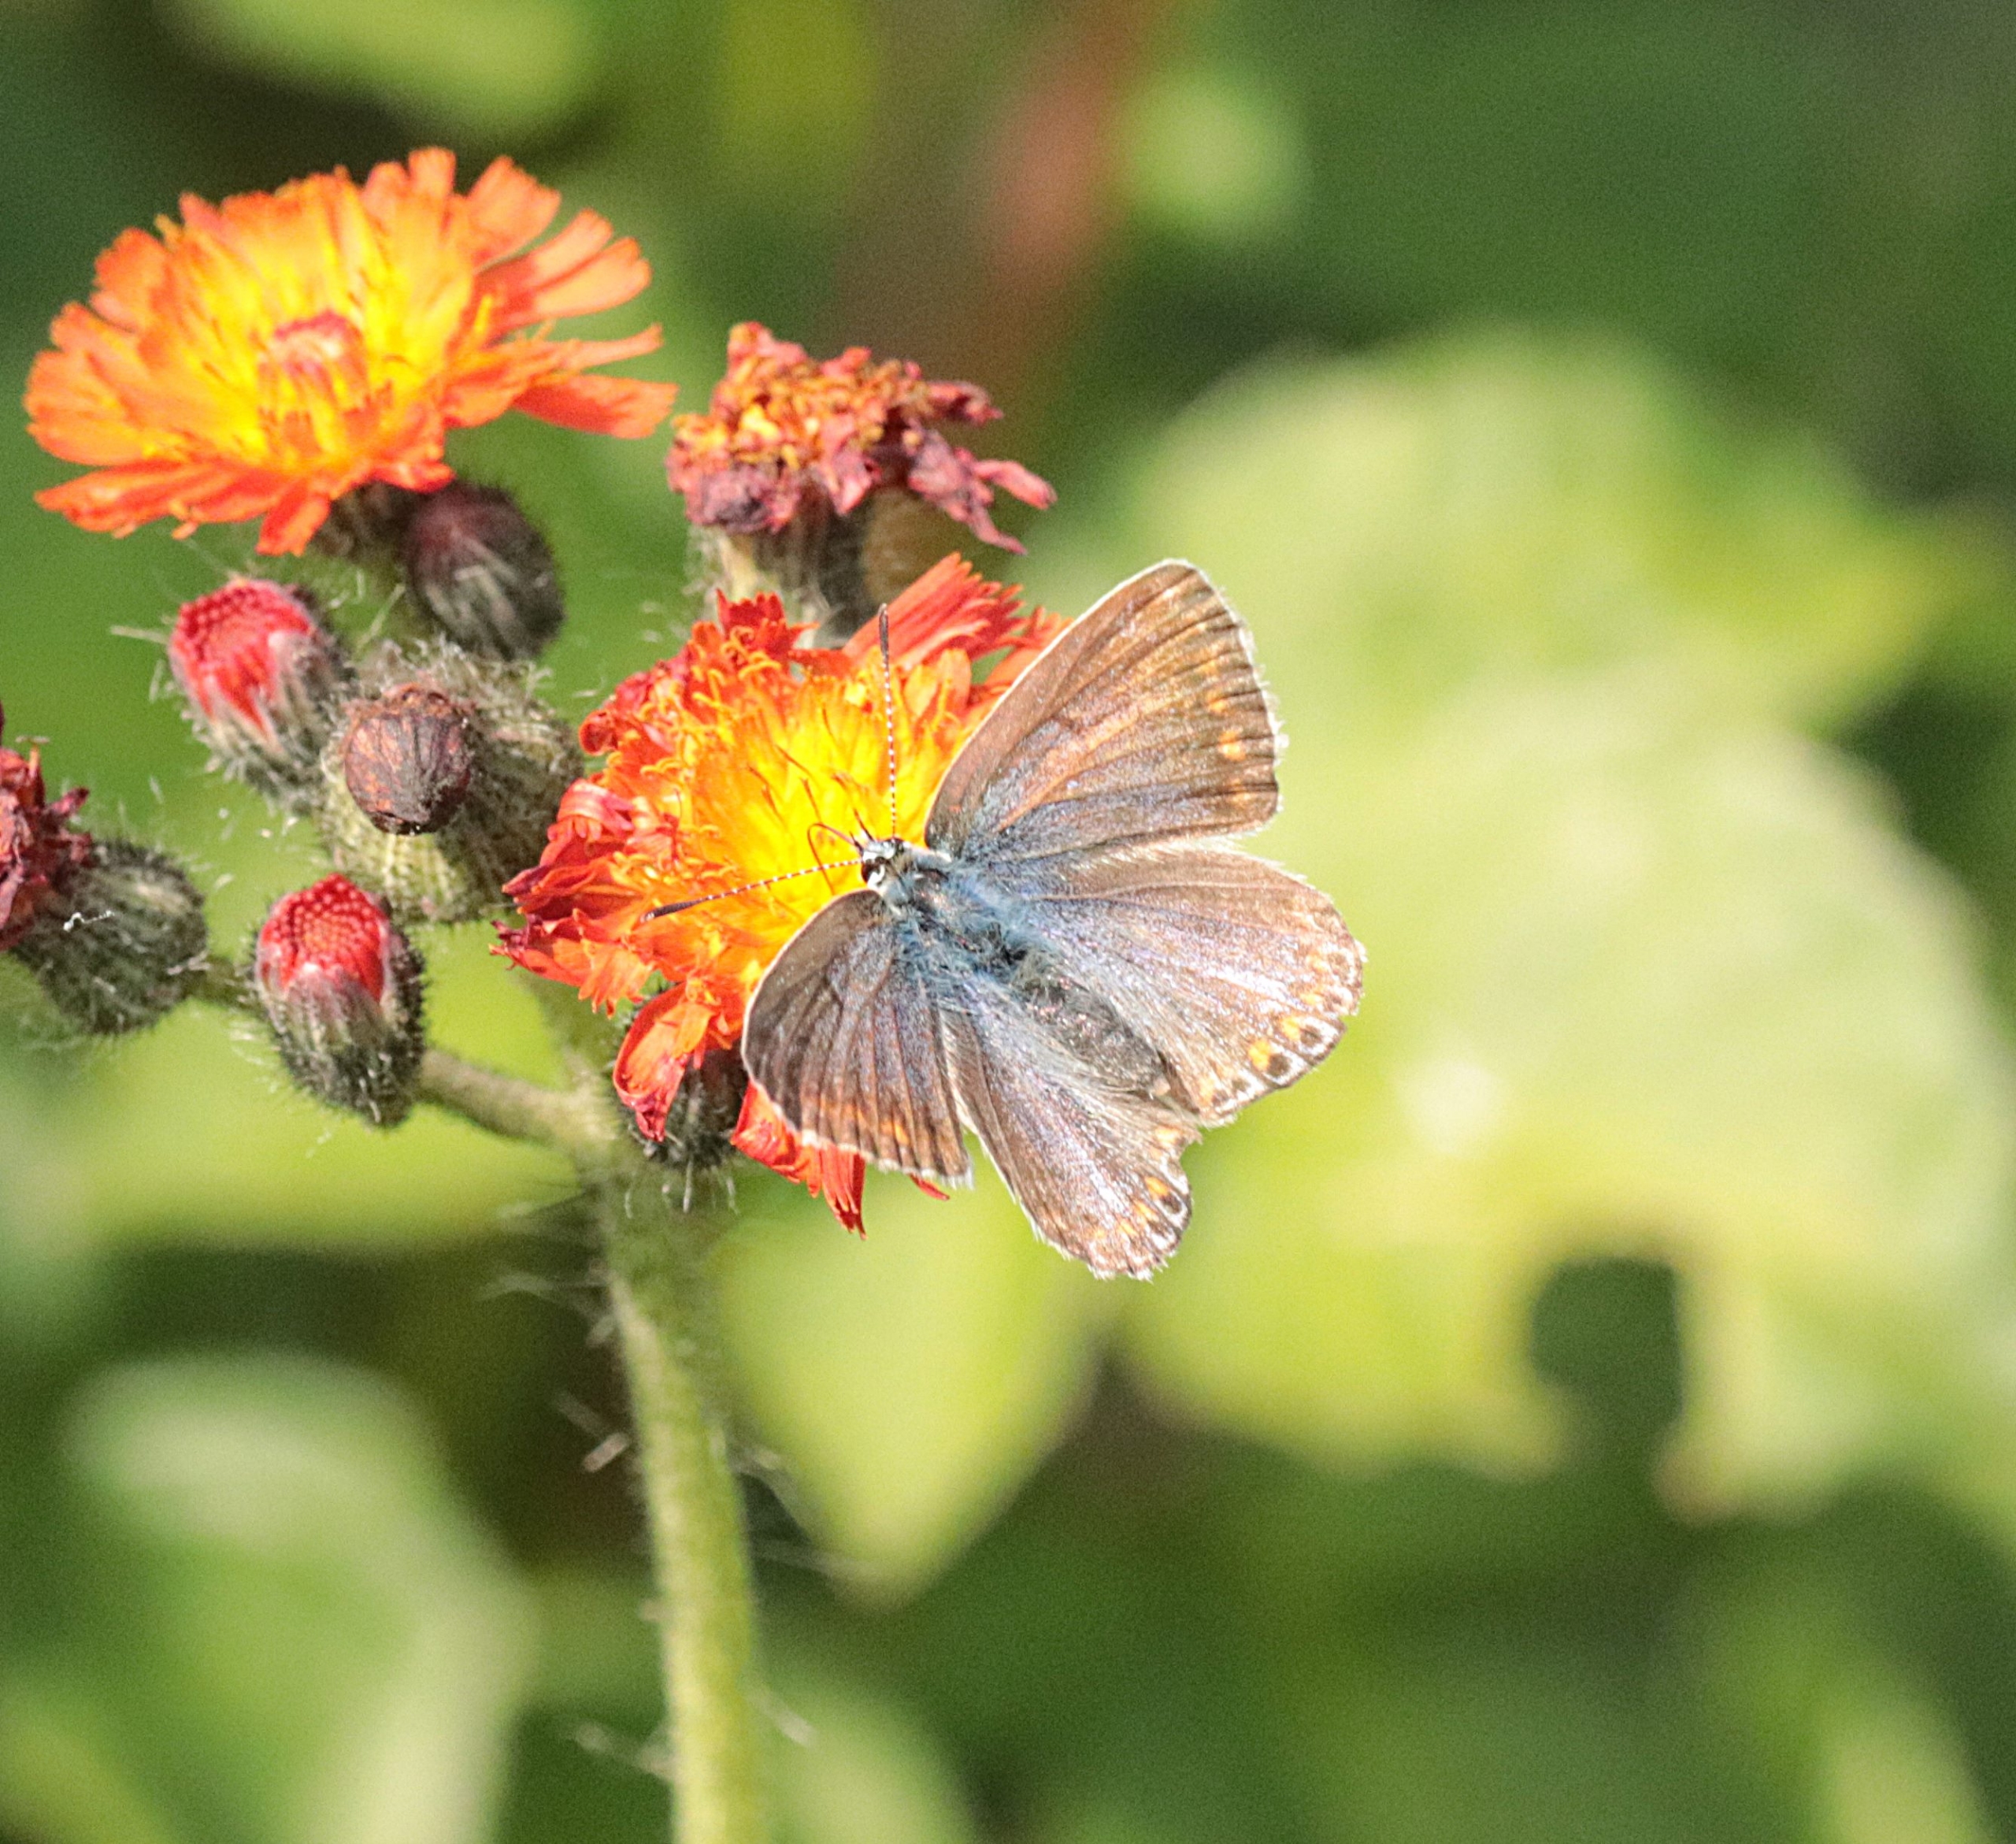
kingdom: Animalia
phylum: Arthropoda
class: Insecta
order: Lepidoptera
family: Lycaenidae
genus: Polyommatus
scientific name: Polyommatus icarus
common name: Almindelig blåfugl
